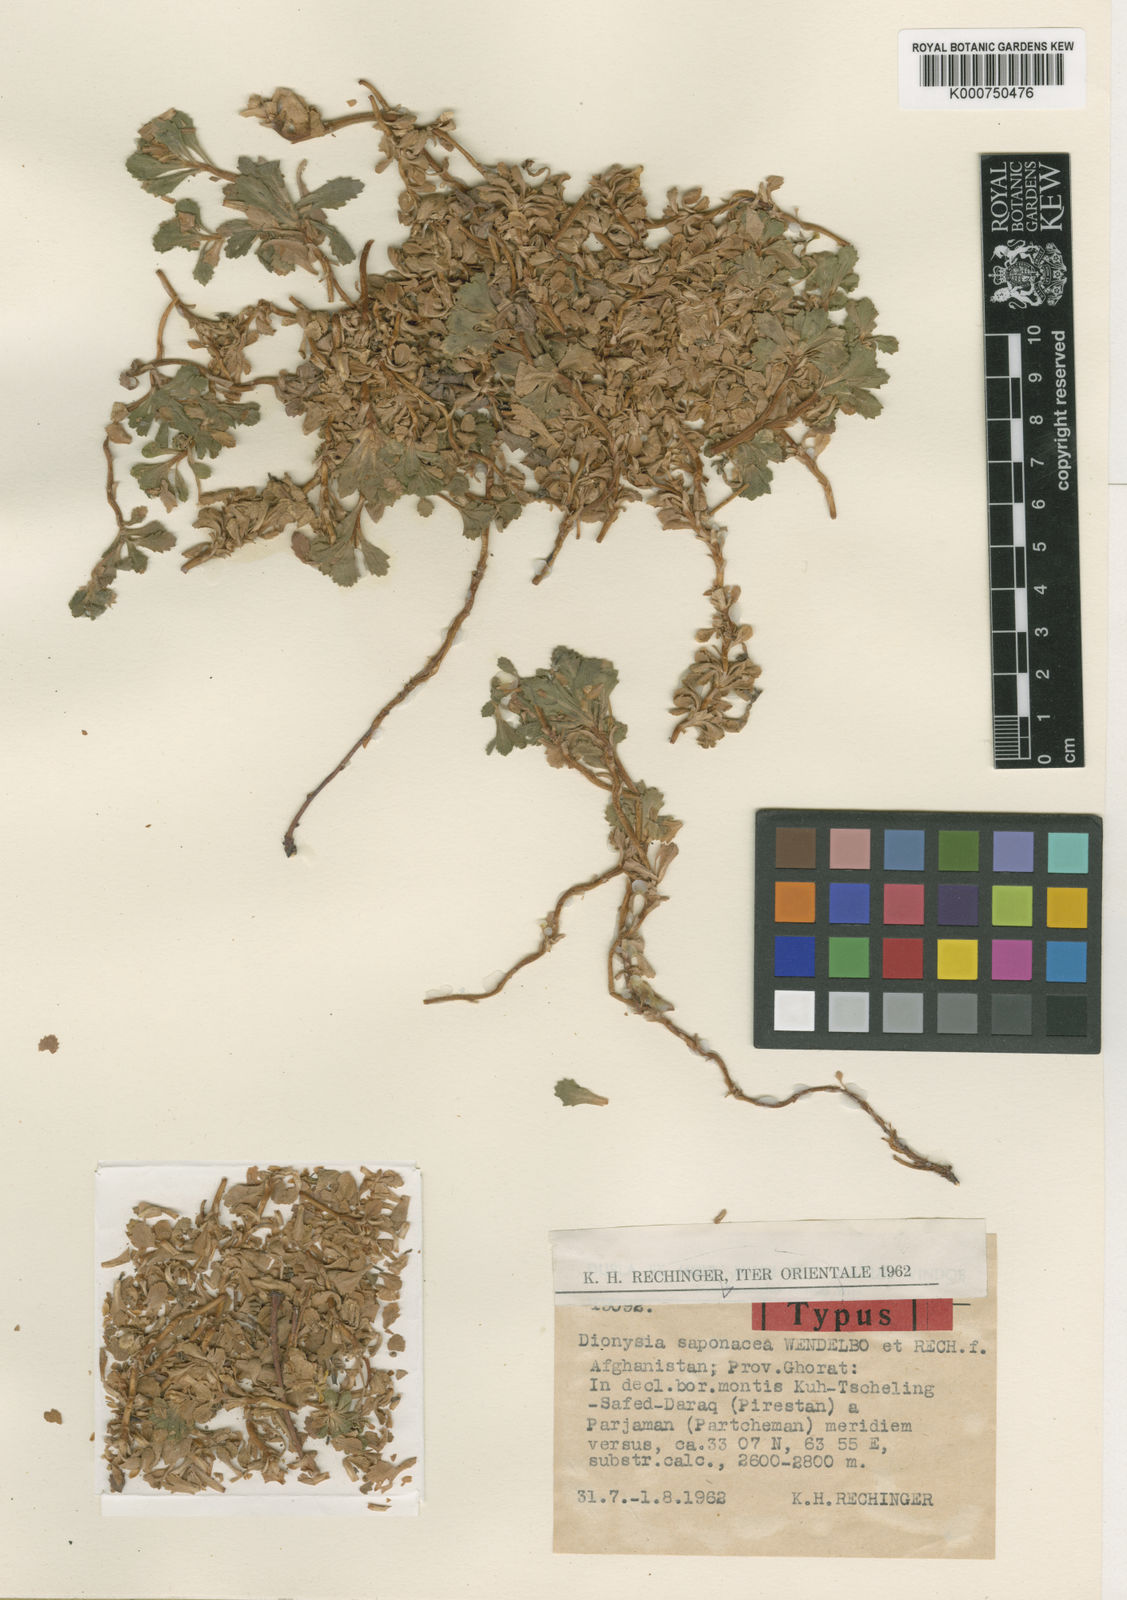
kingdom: Plantae
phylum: Tracheophyta
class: Magnoliopsida
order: Ericales
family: Primulaceae
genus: Dionysia
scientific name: Dionysia saponacea
